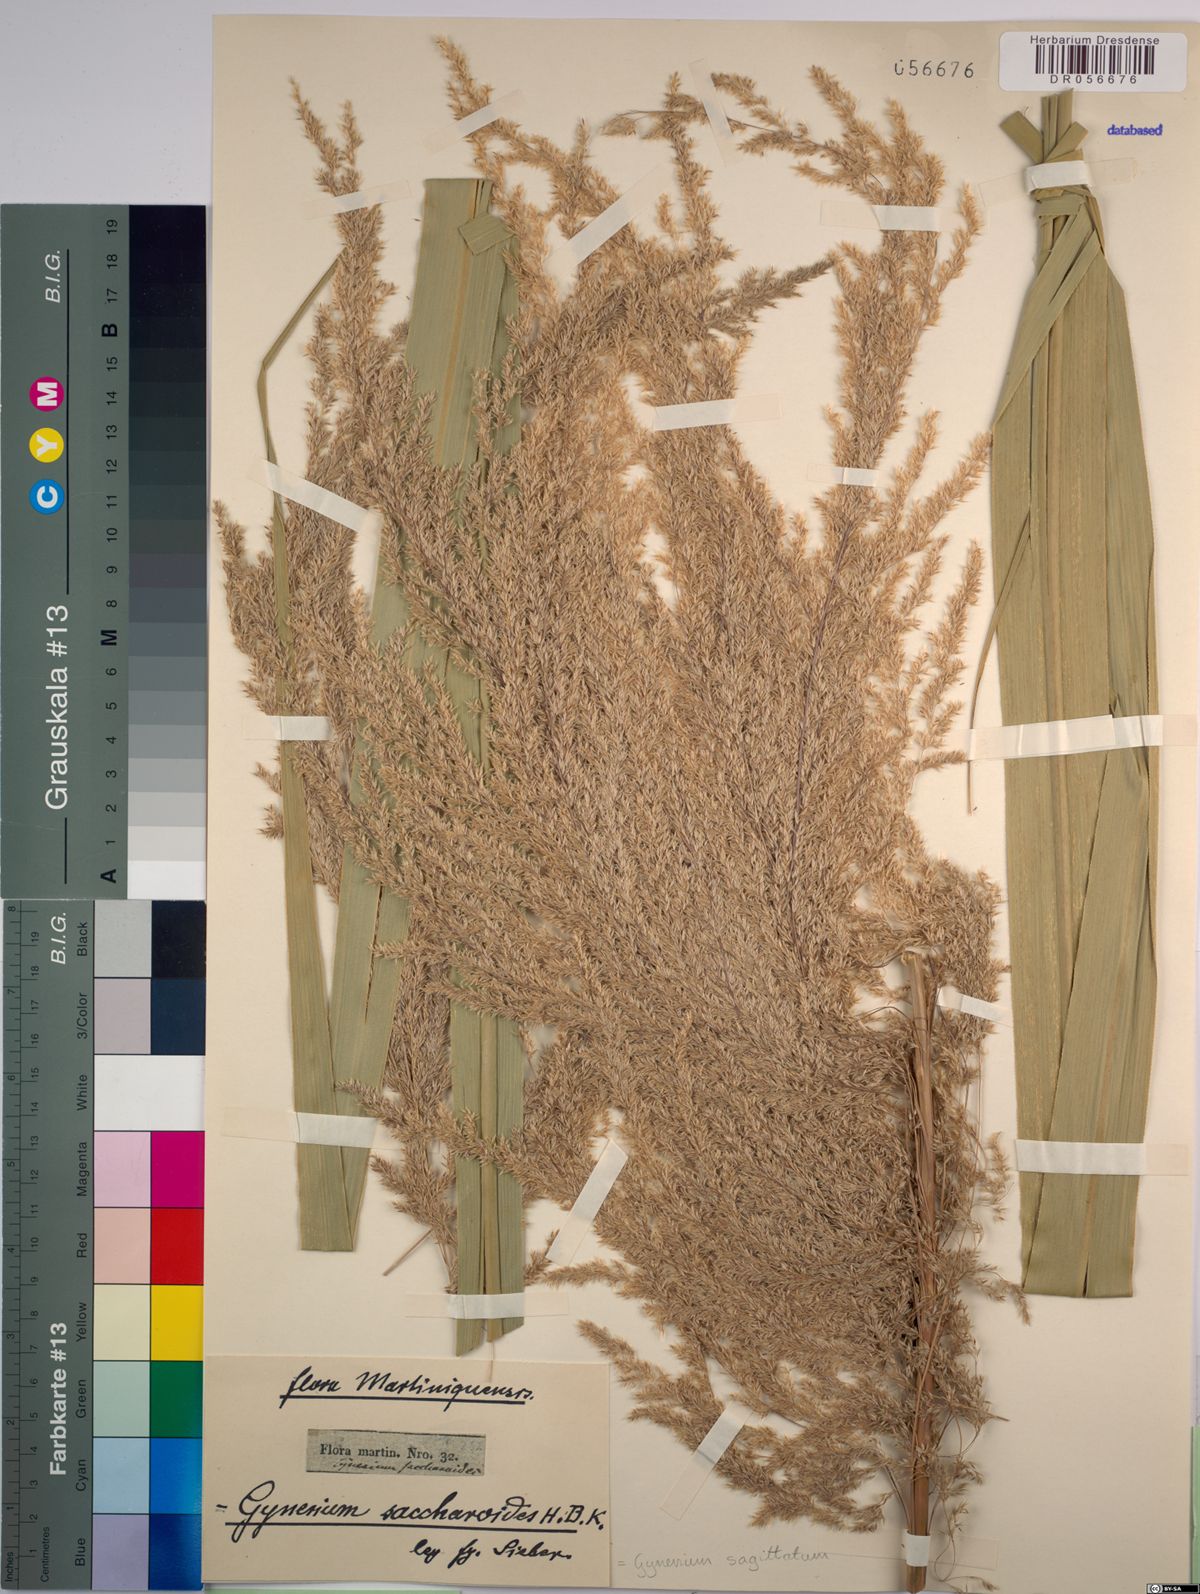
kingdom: Plantae
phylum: Tracheophyta
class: Liliopsida
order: Poales
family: Poaceae
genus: Gynerium
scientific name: Gynerium sagittatum
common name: Wild cane
